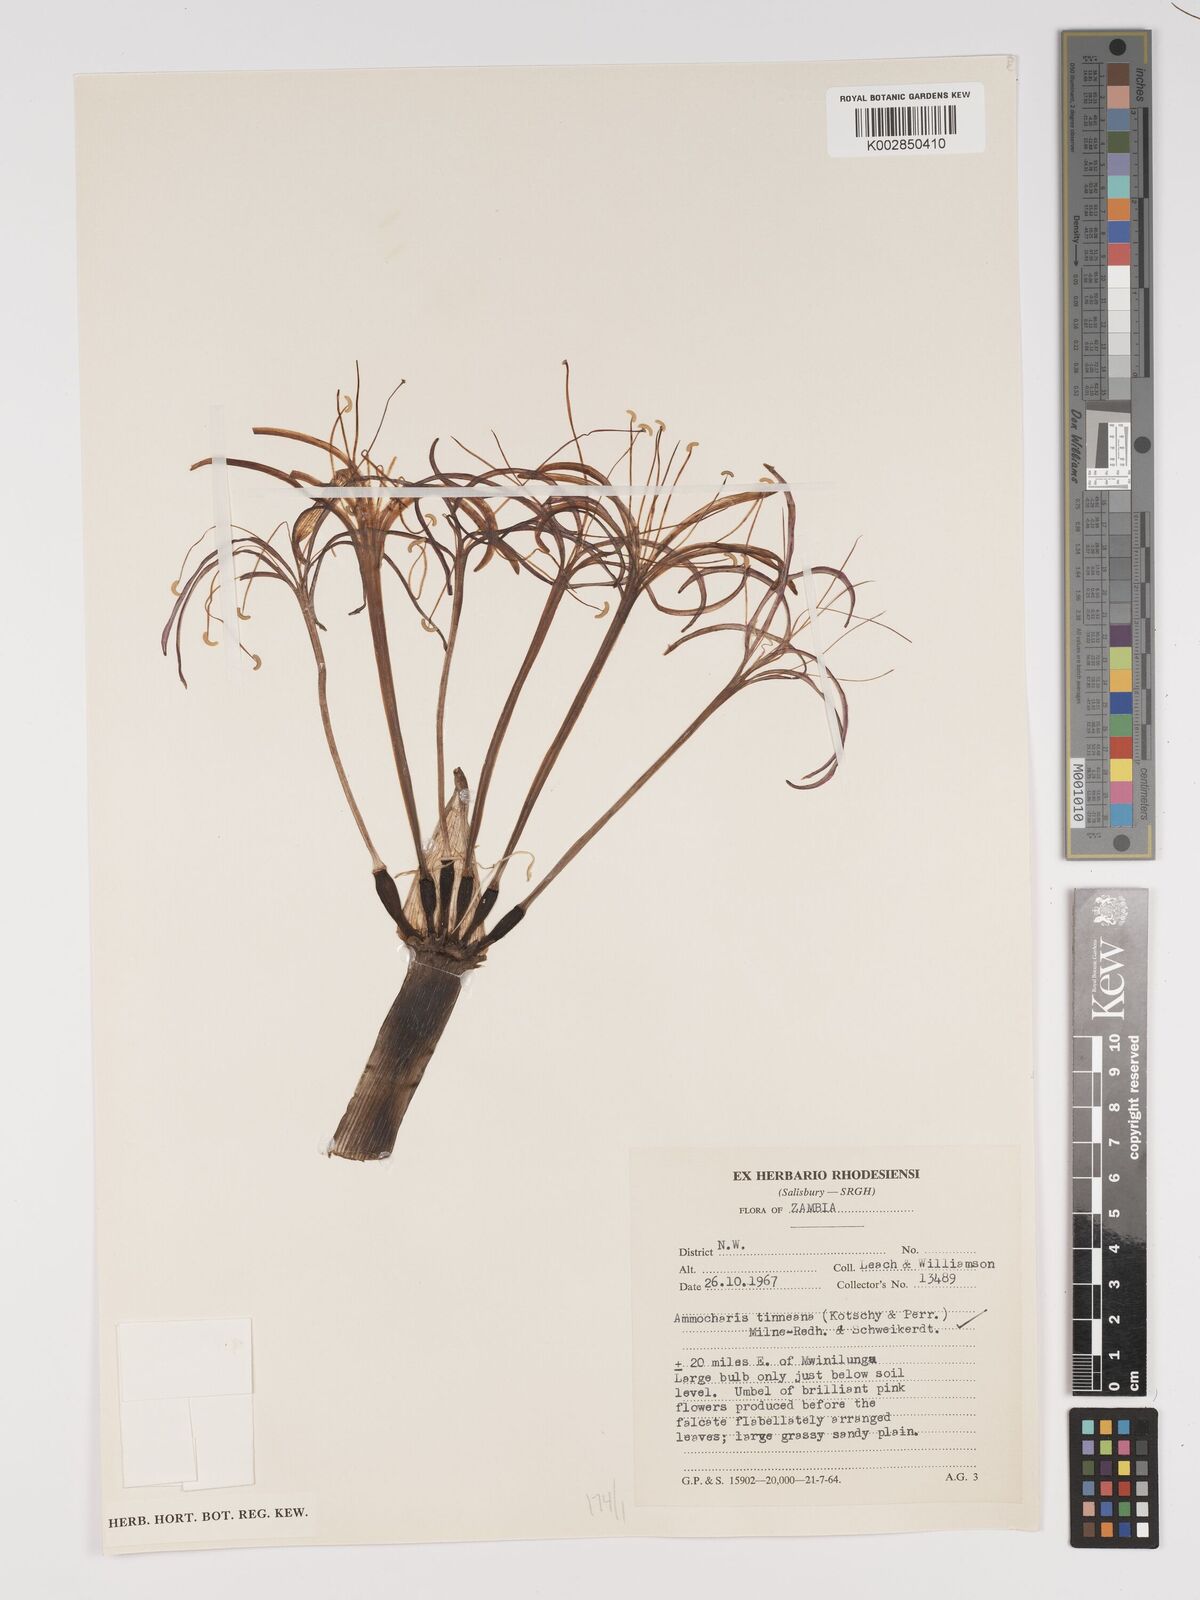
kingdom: Plantae
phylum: Tracheophyta
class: Liliopsida
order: Asparagales
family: Amaryllidaceae
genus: Ammocharis
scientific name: Ammocharis tinneana
